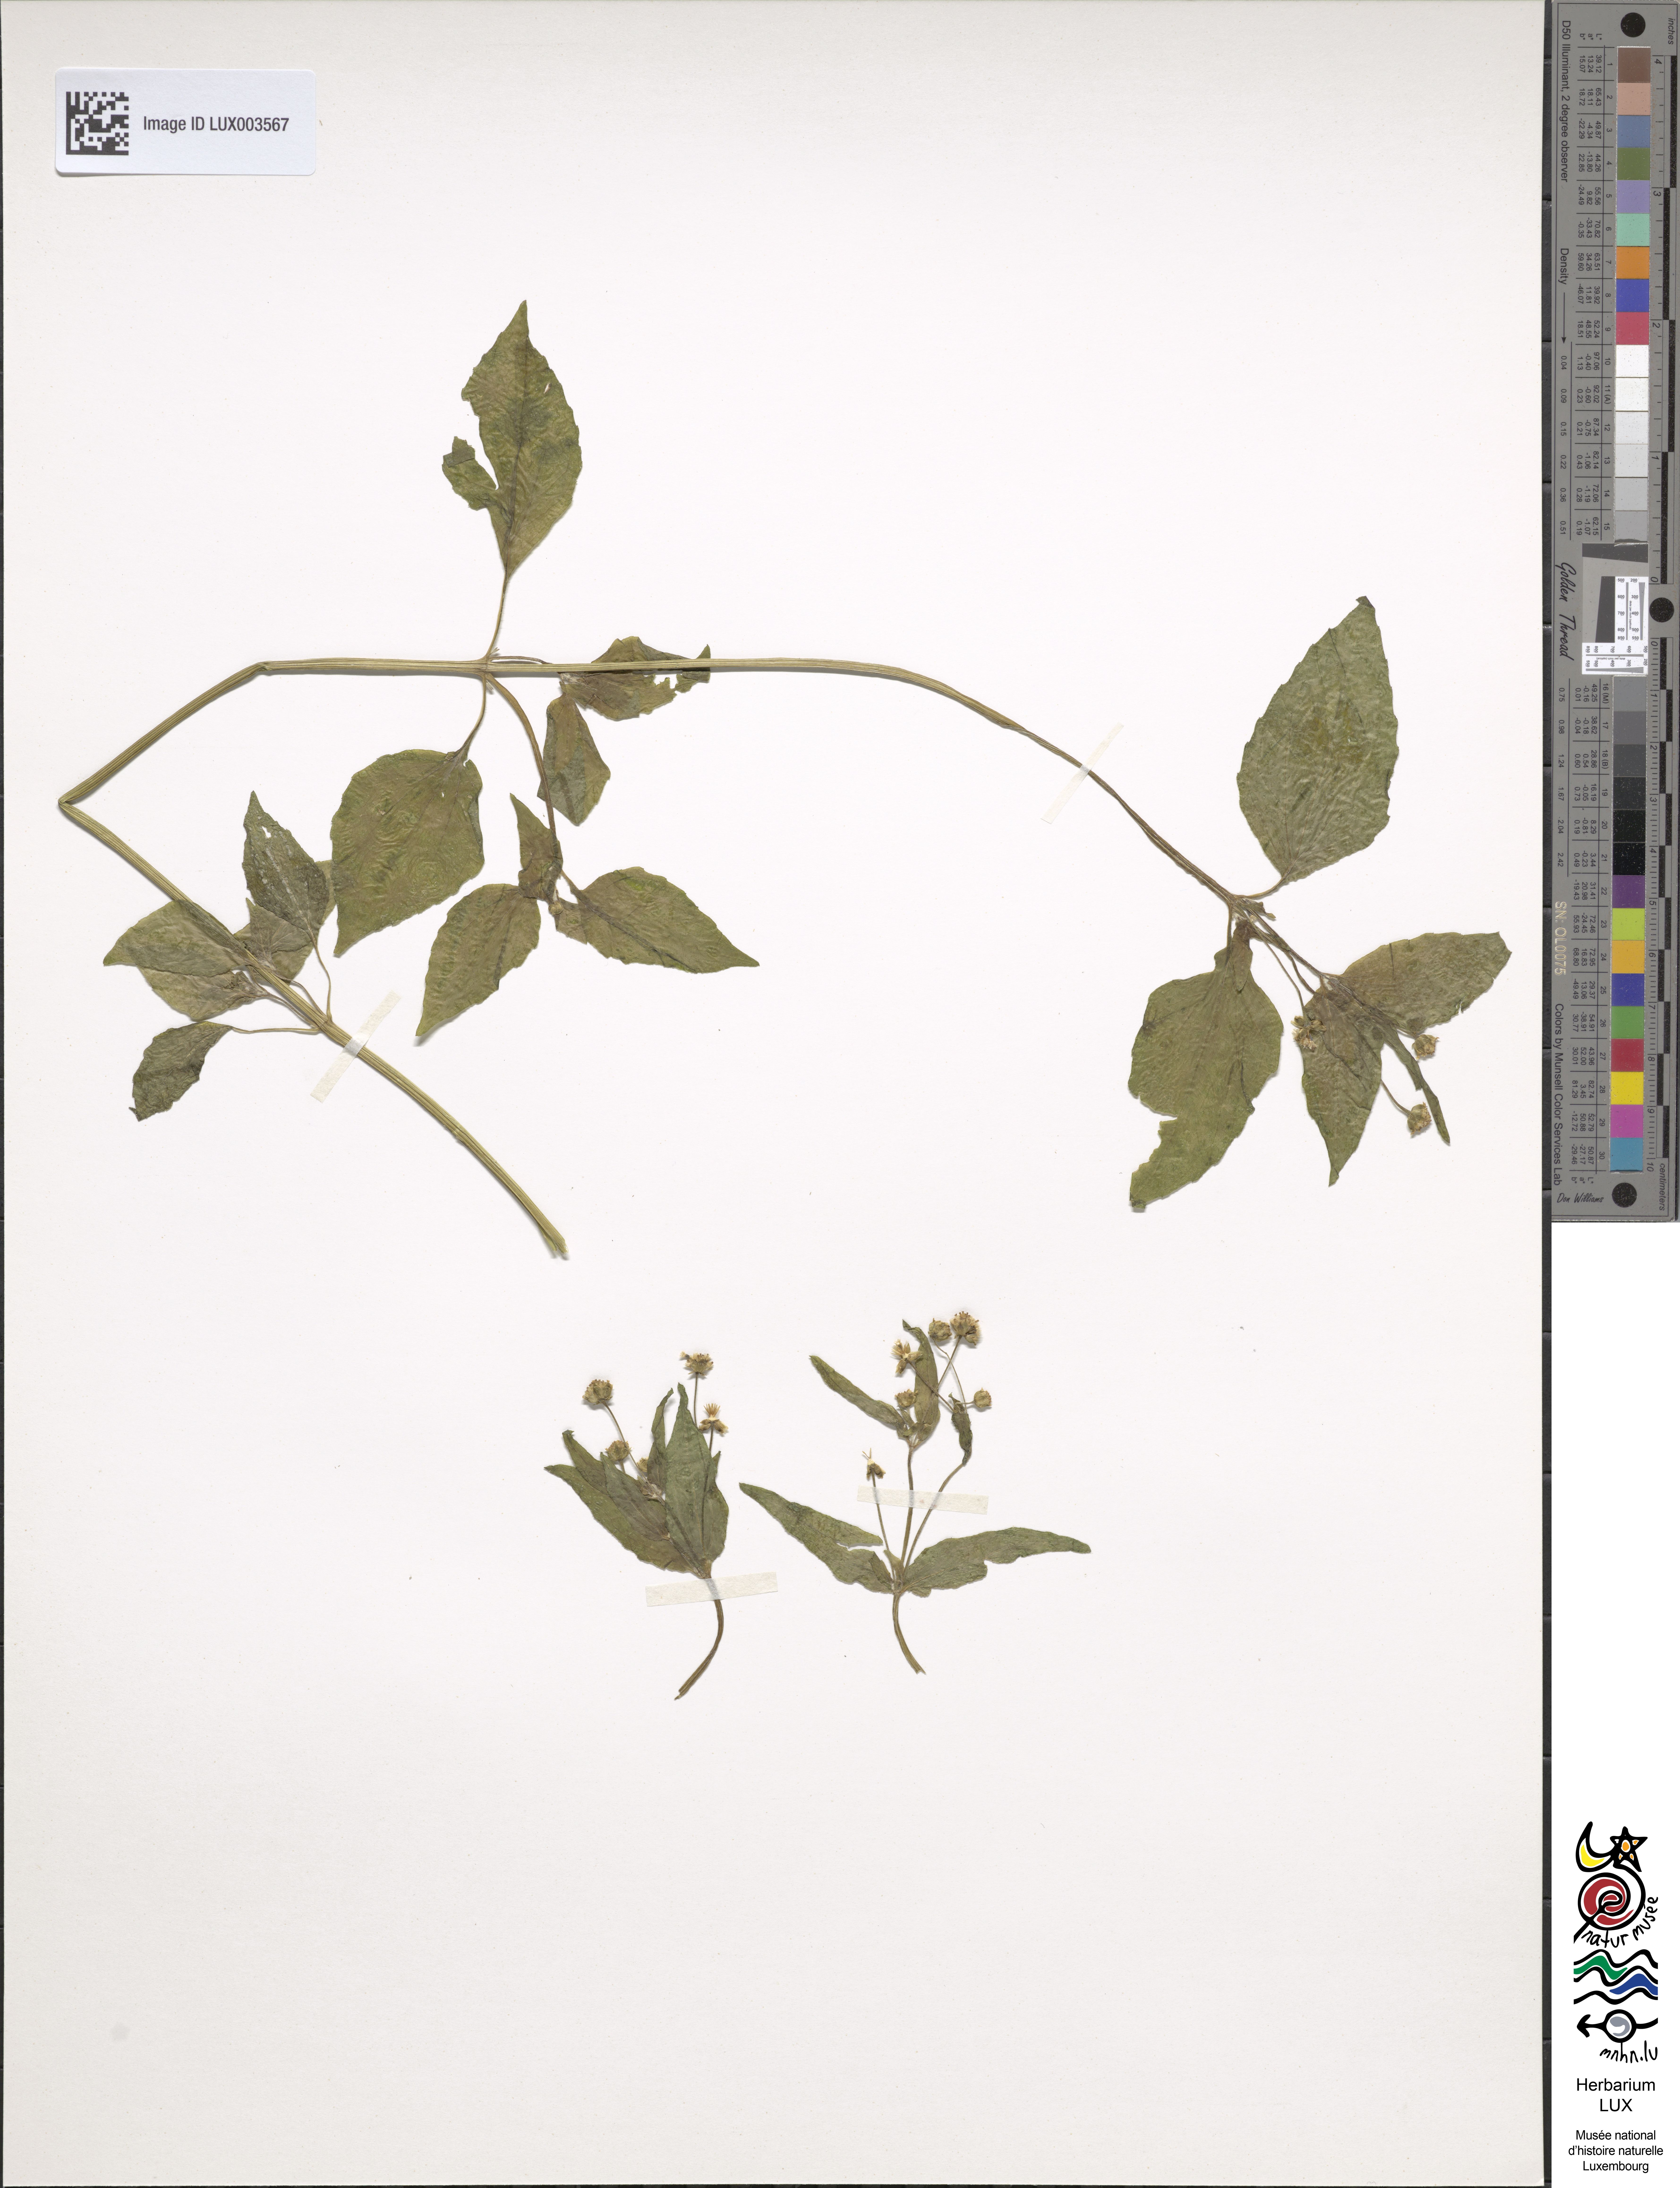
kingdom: Plantae
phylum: Tracheophyta
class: Magnoliopsida
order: Asterales
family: Asteraceae
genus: Galinsoga
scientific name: Galinsoga parviflora
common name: Gallant soldier
